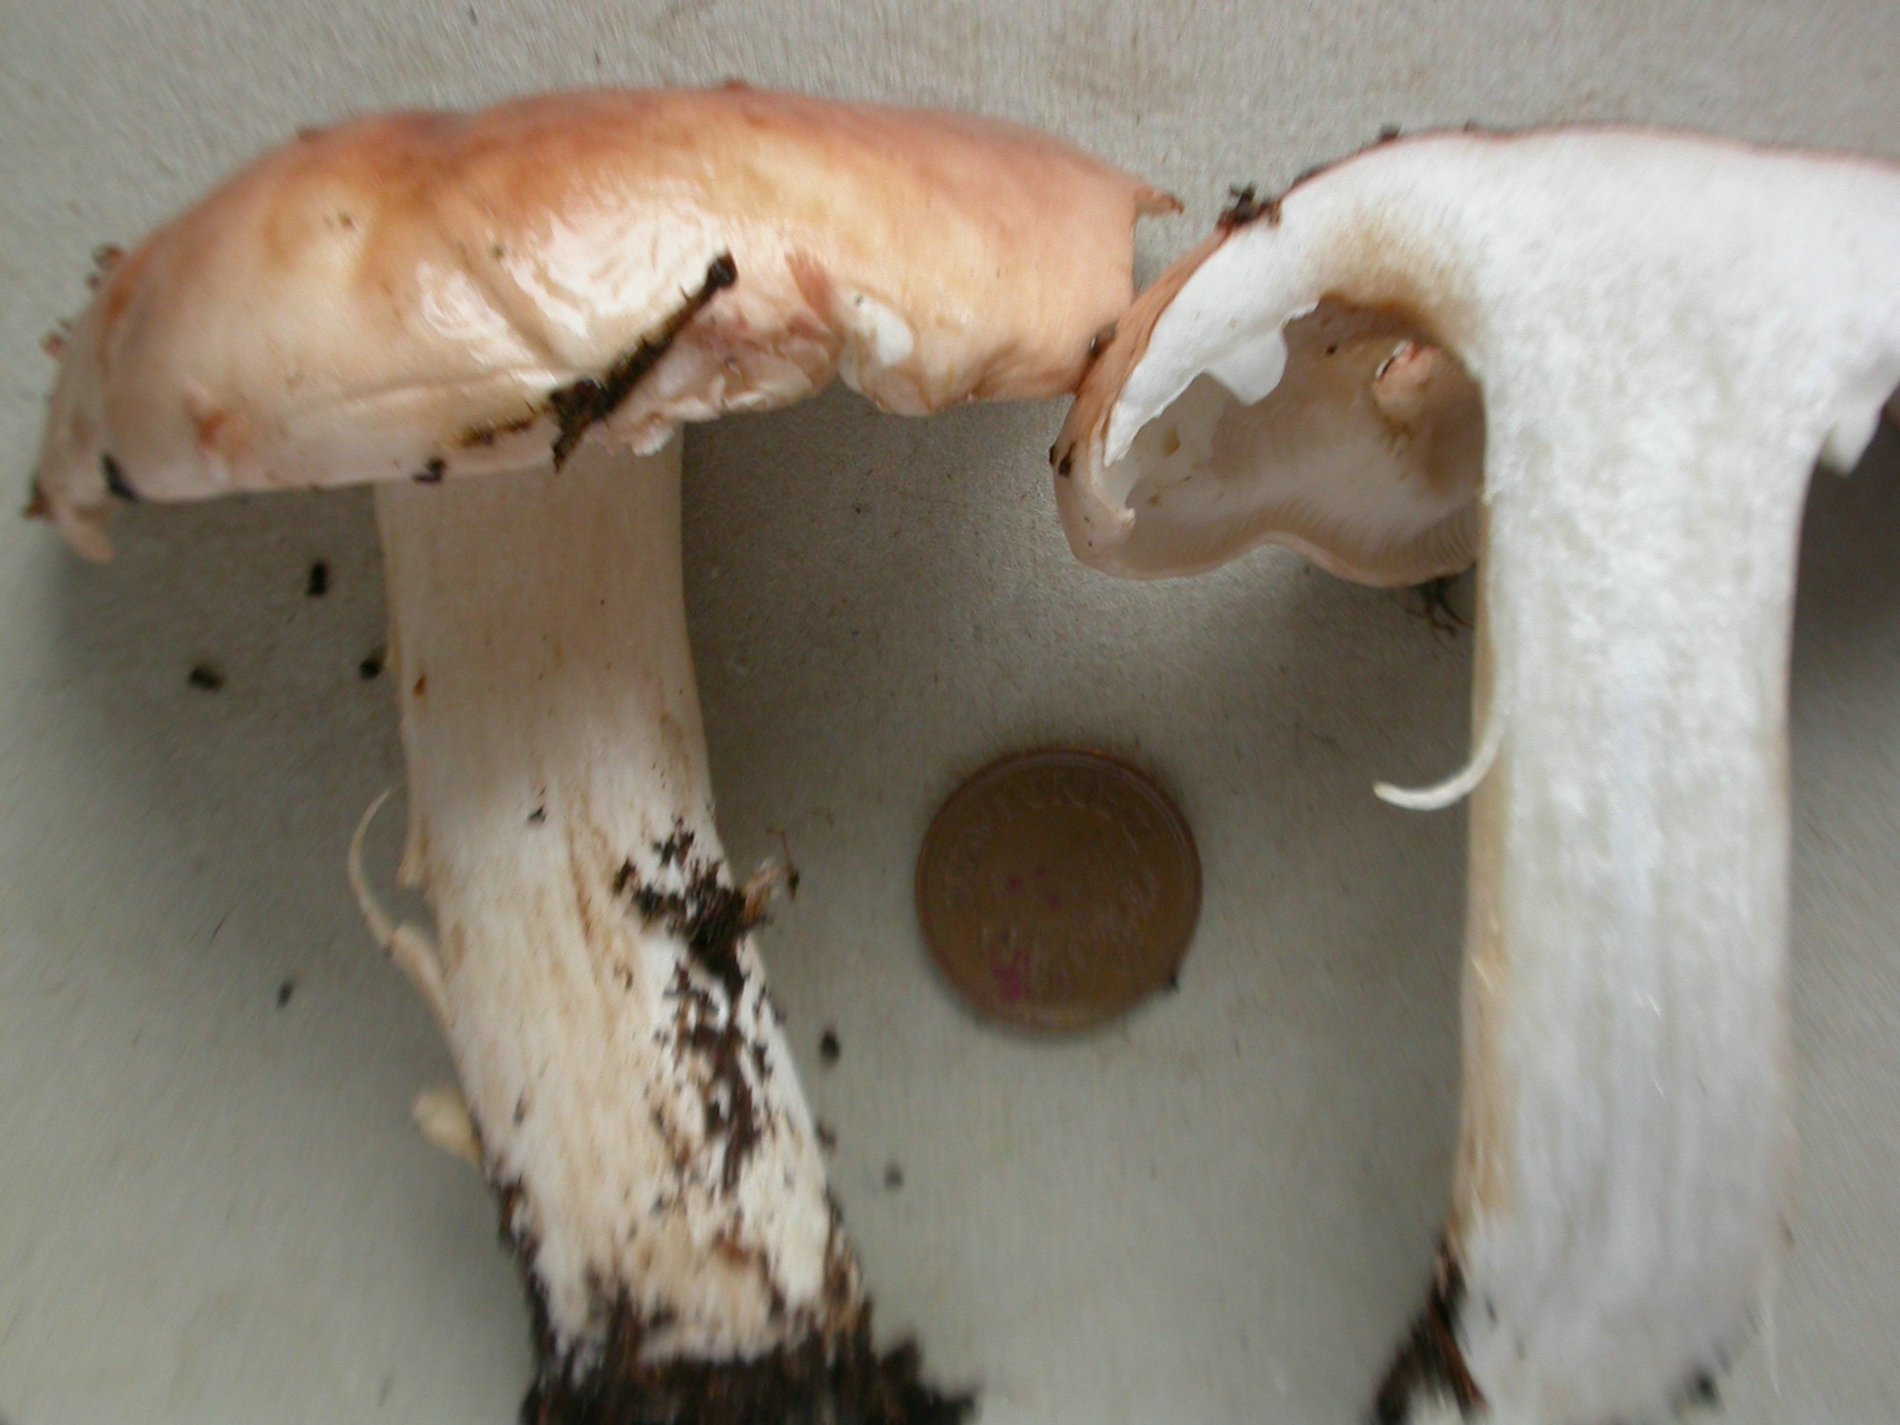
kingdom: Fungi
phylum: Basidiomycota
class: Agaricomycetes
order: Agaricales
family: Tricholomataceae
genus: Tricholoma
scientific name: Tricholoma stans
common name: stolt ridderhat
